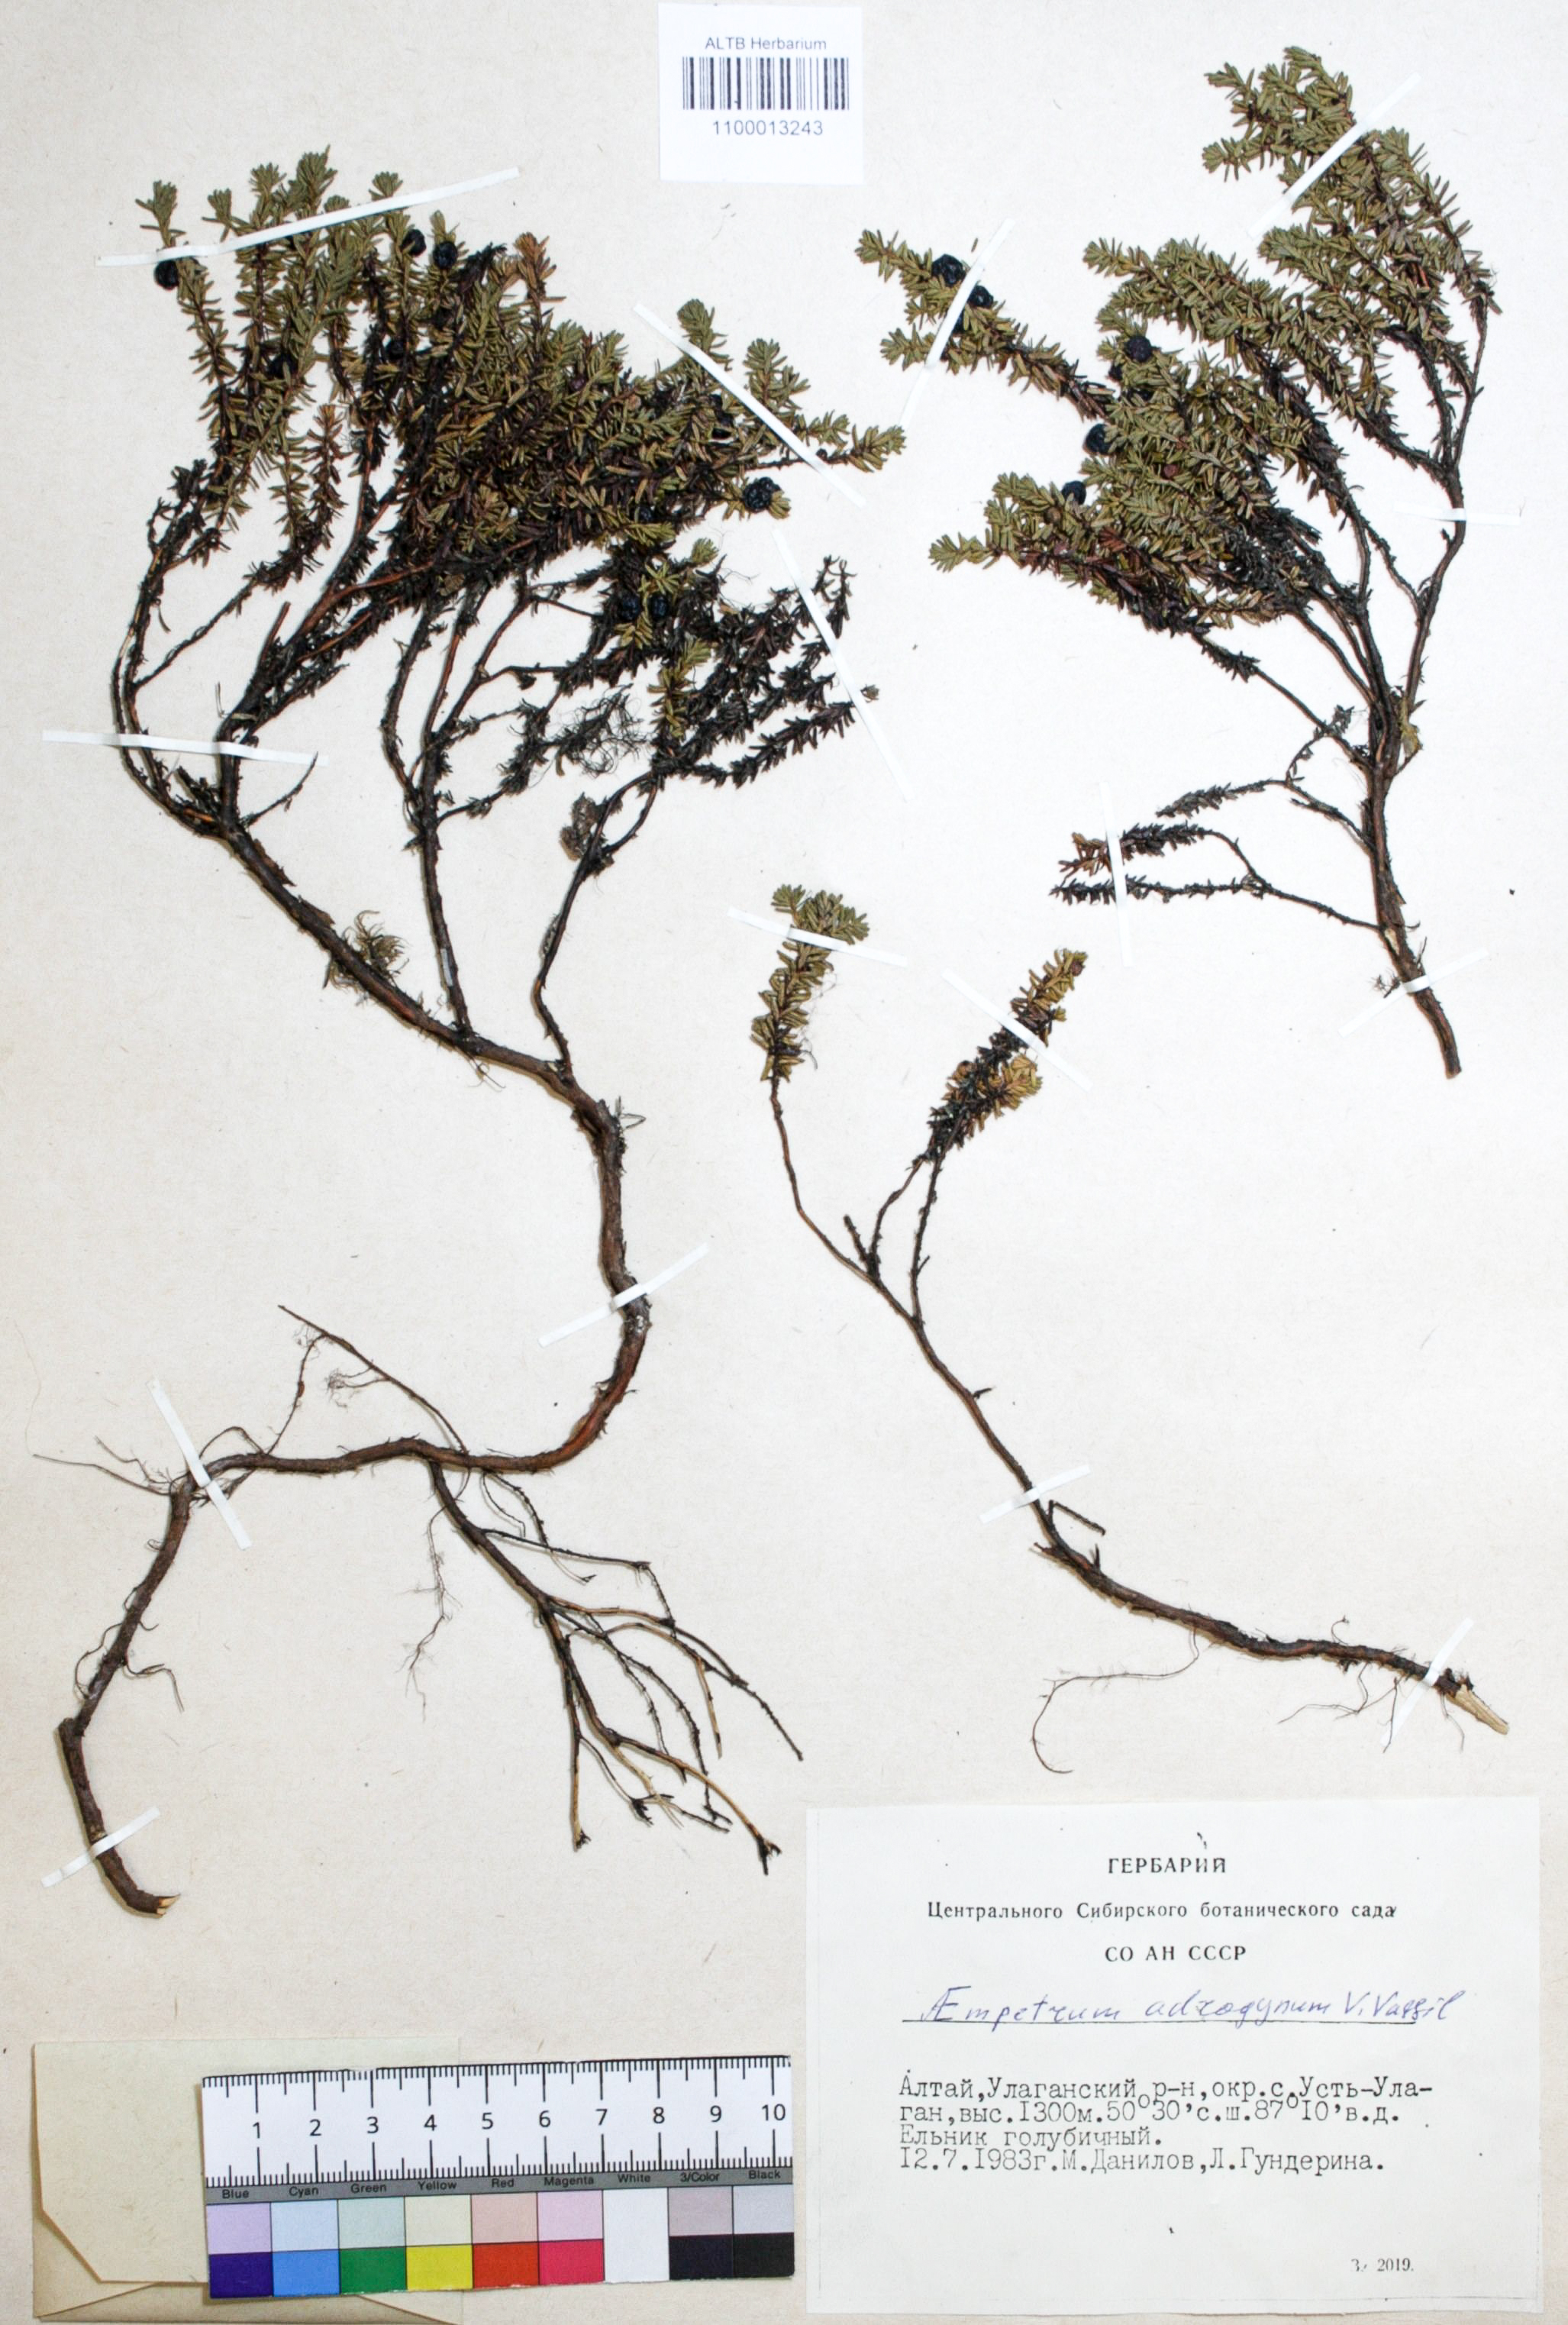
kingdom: Plantae
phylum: Tracheophyta
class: Magnoliopsida
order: Ericales
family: Ericaceae
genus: Empetrum
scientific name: Empetrum nigrum
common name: Black crowberry
